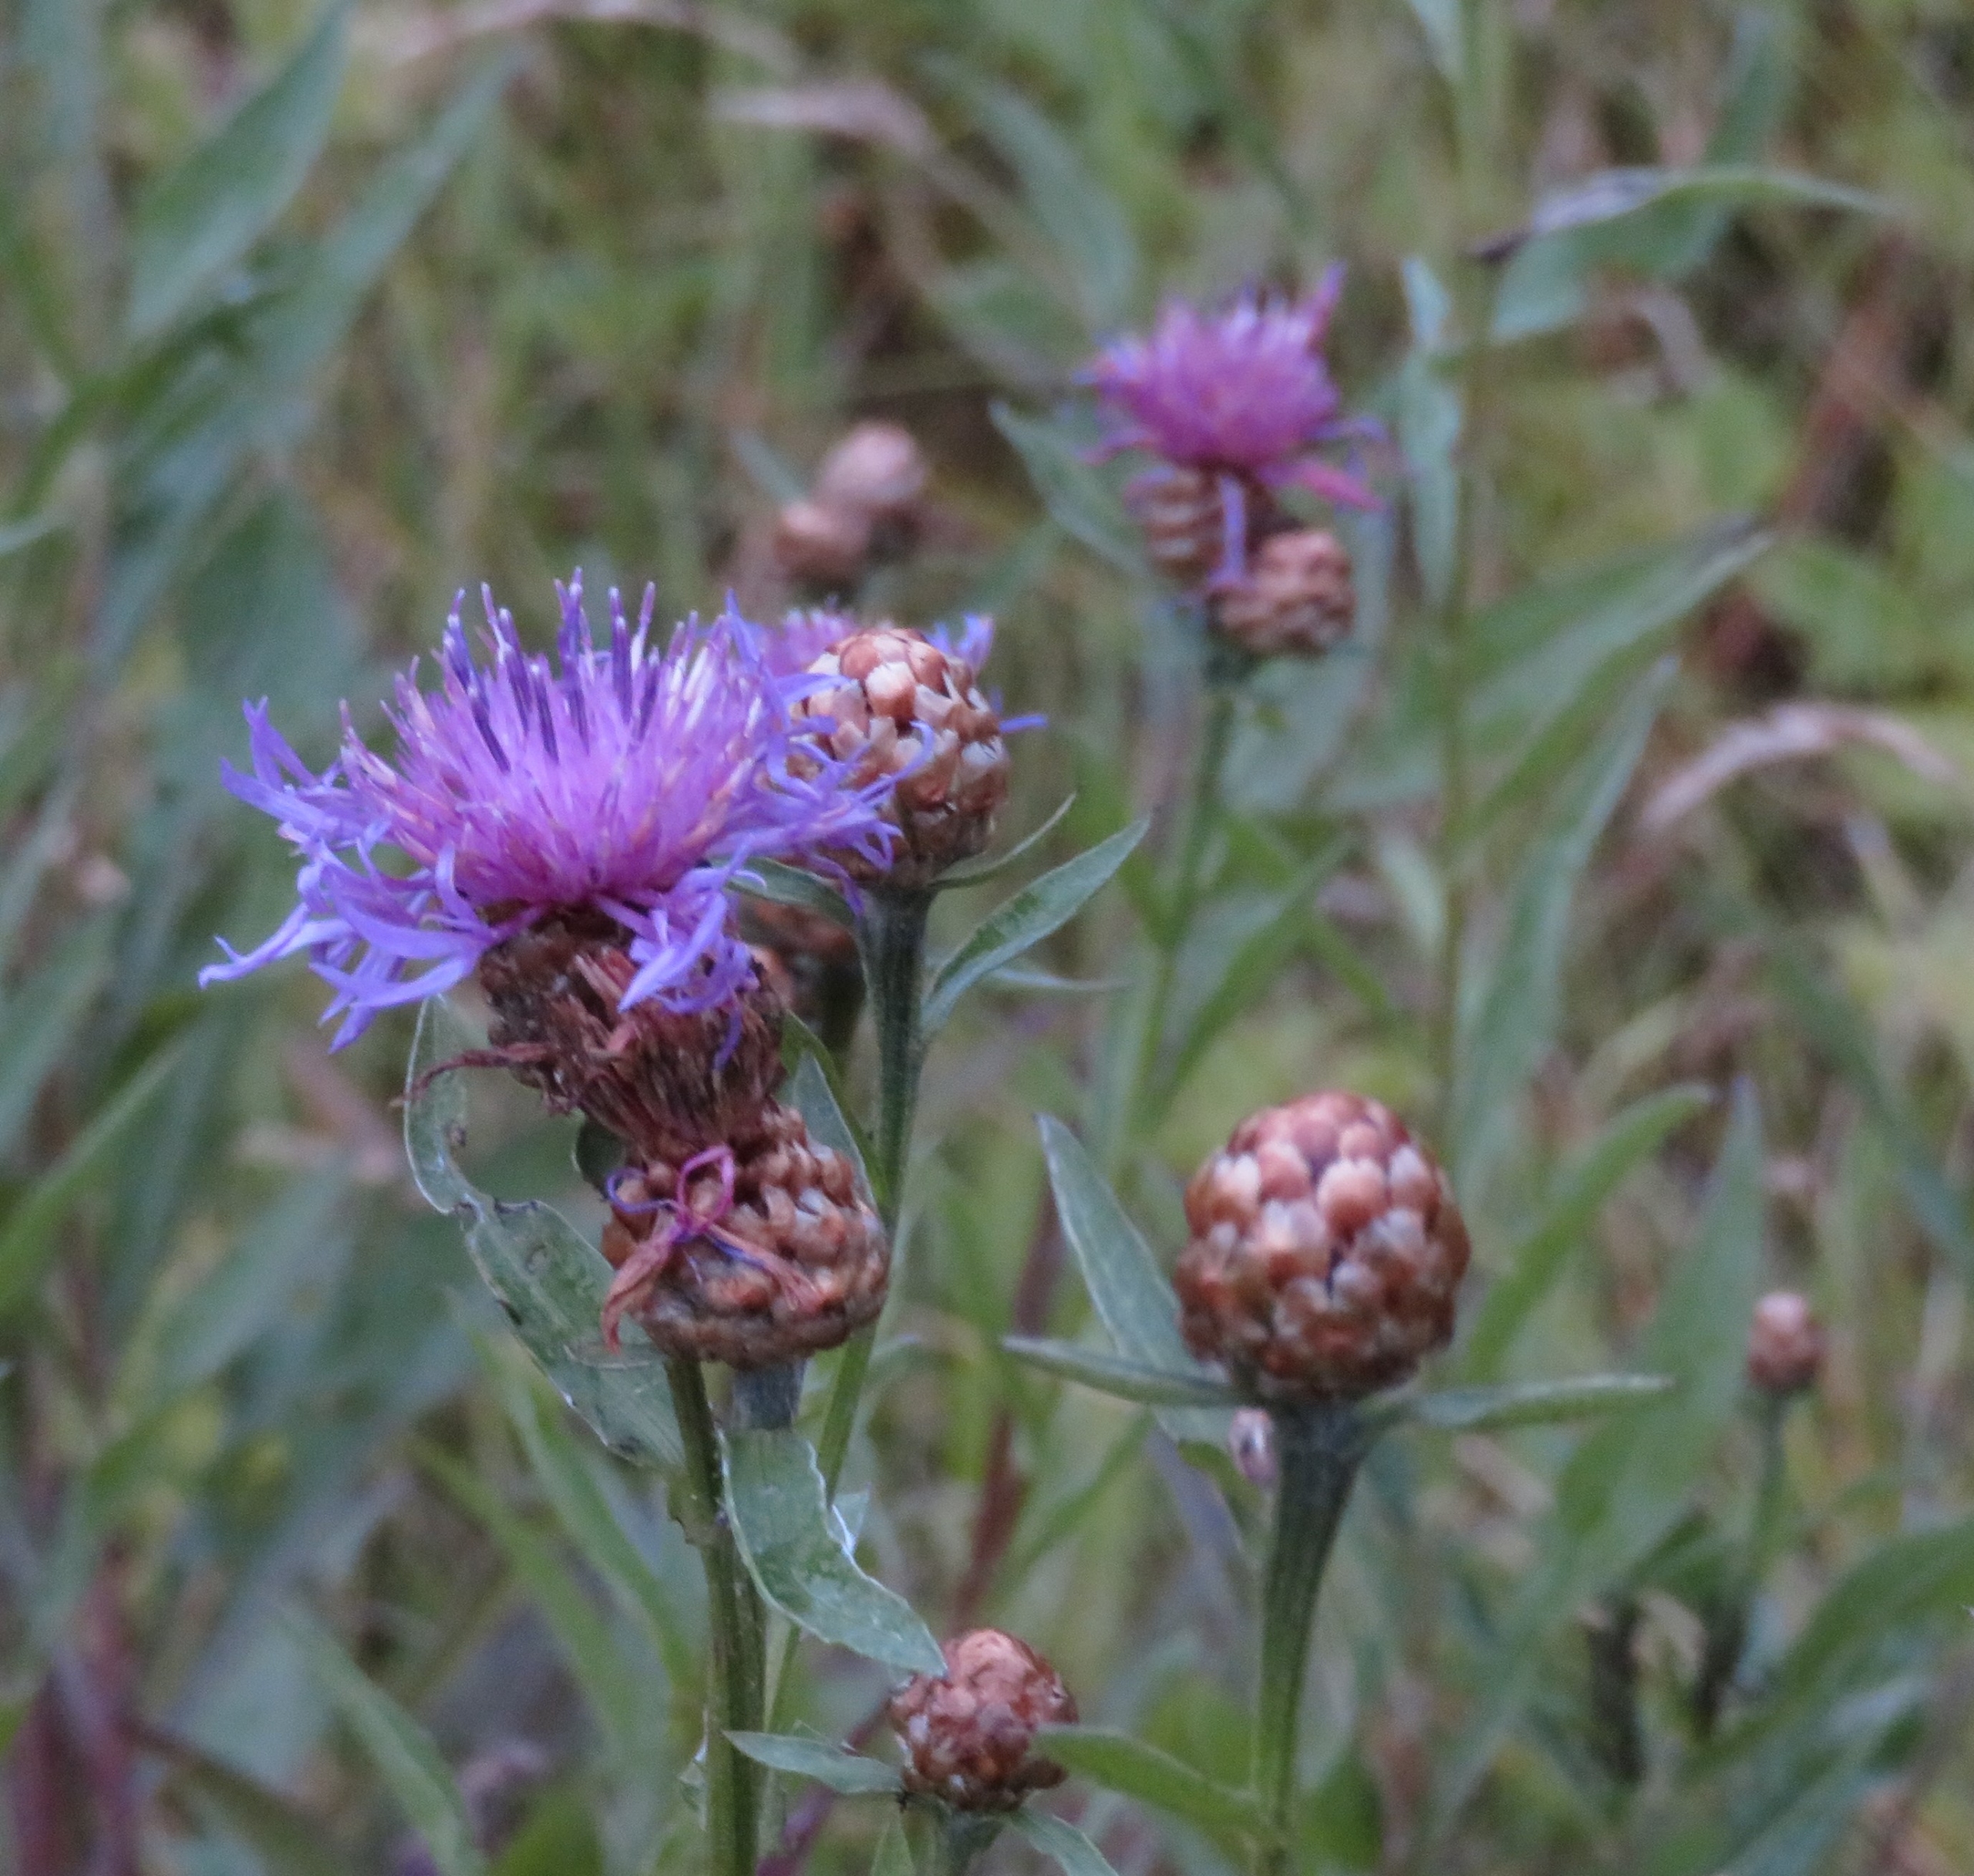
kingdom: Plantae
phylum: Tracheophyta
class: Magnoliopsida
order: Asterales
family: Asteraceae
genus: Centaurea
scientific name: Centaurea jacea
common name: Almindelig knopurt
